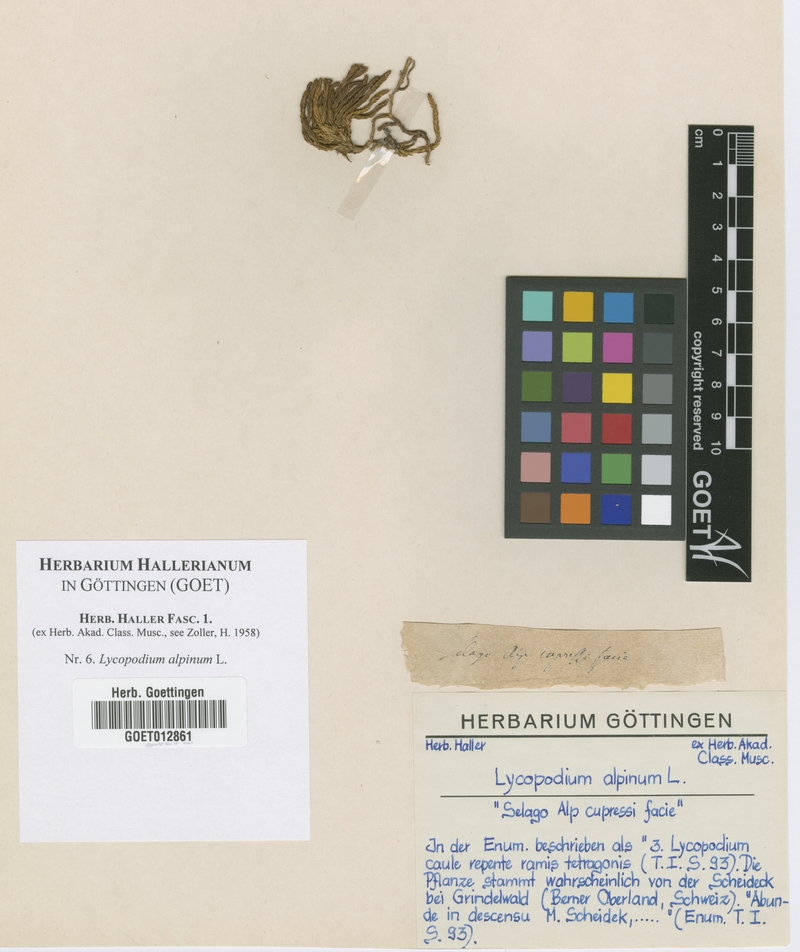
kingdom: Plantae
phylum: Tracheophyta
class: Lycopodiopsida
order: Lycopodiales
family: Lycopodiaceae
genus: Diphasiastrum
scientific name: Diphasiastrum alpinum
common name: Alpine clubmoss
